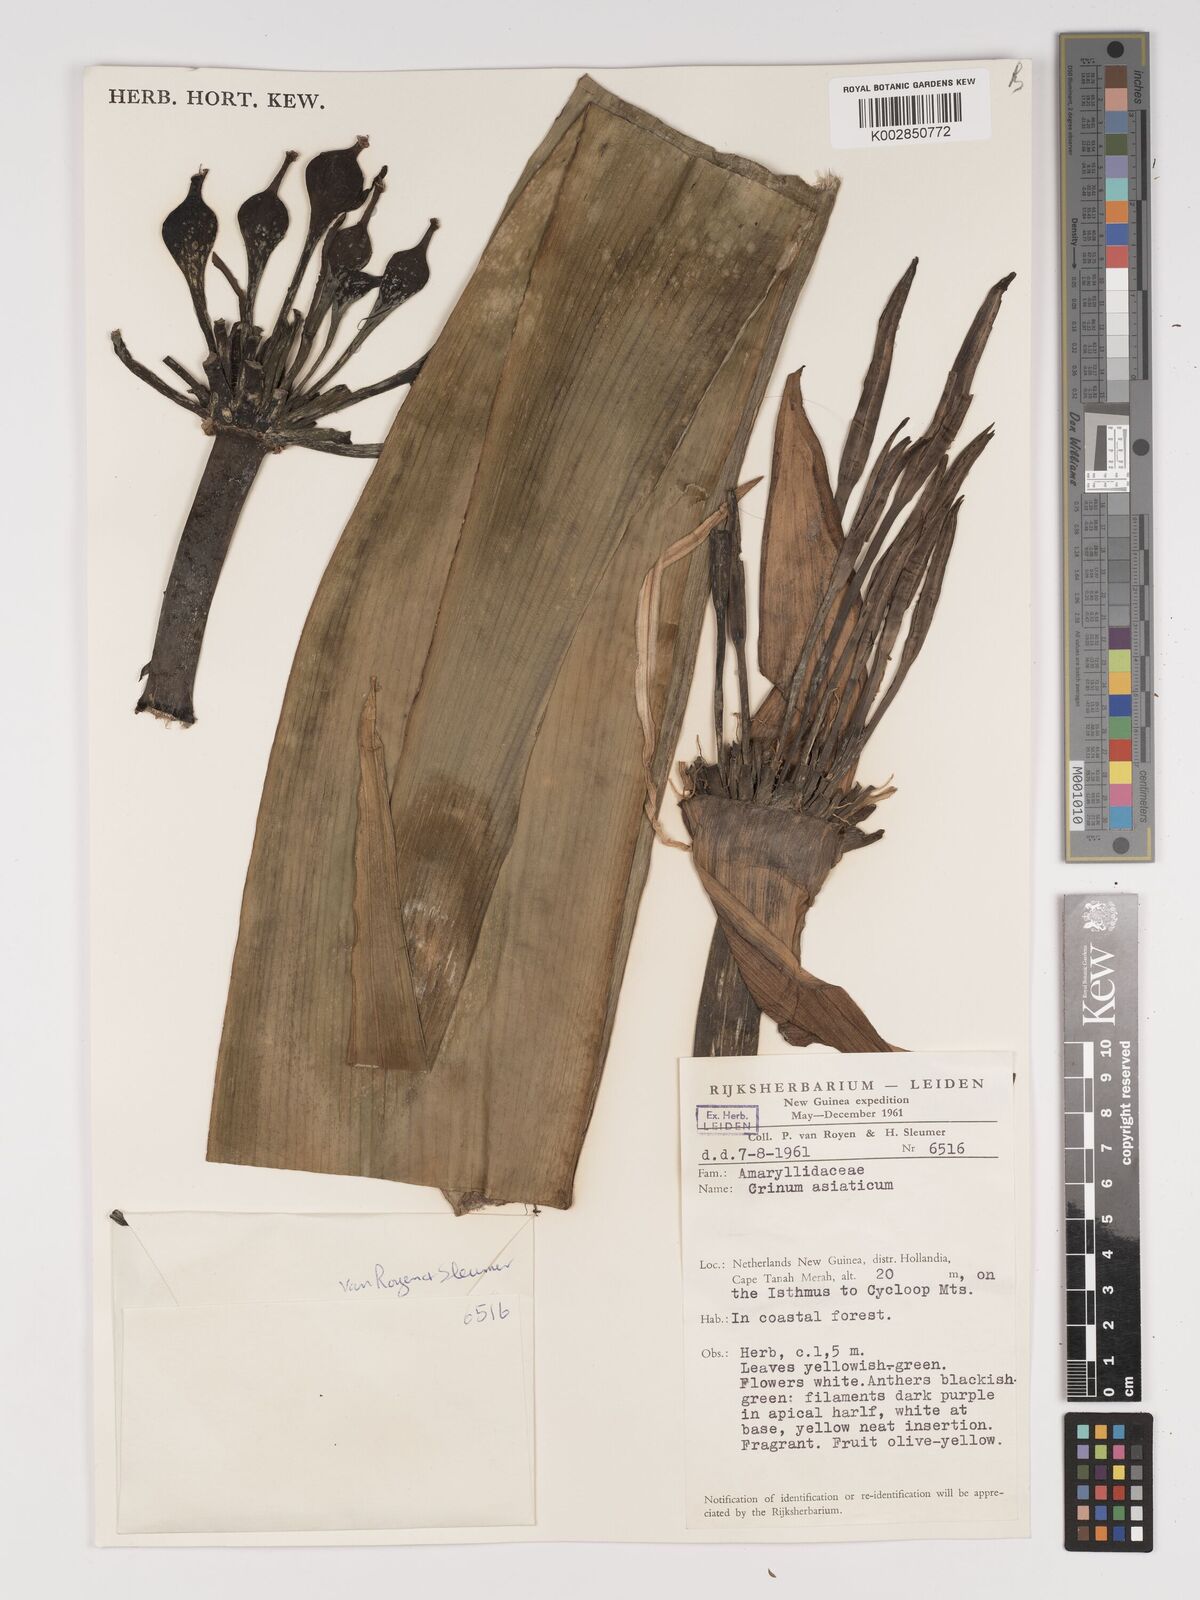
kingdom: Plantae
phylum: Tracheophyta
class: Liliopsida
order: Asparagales
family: Amaryllidaceae
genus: Crinum
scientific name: Crinum asiaticum
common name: Poisonbulb
